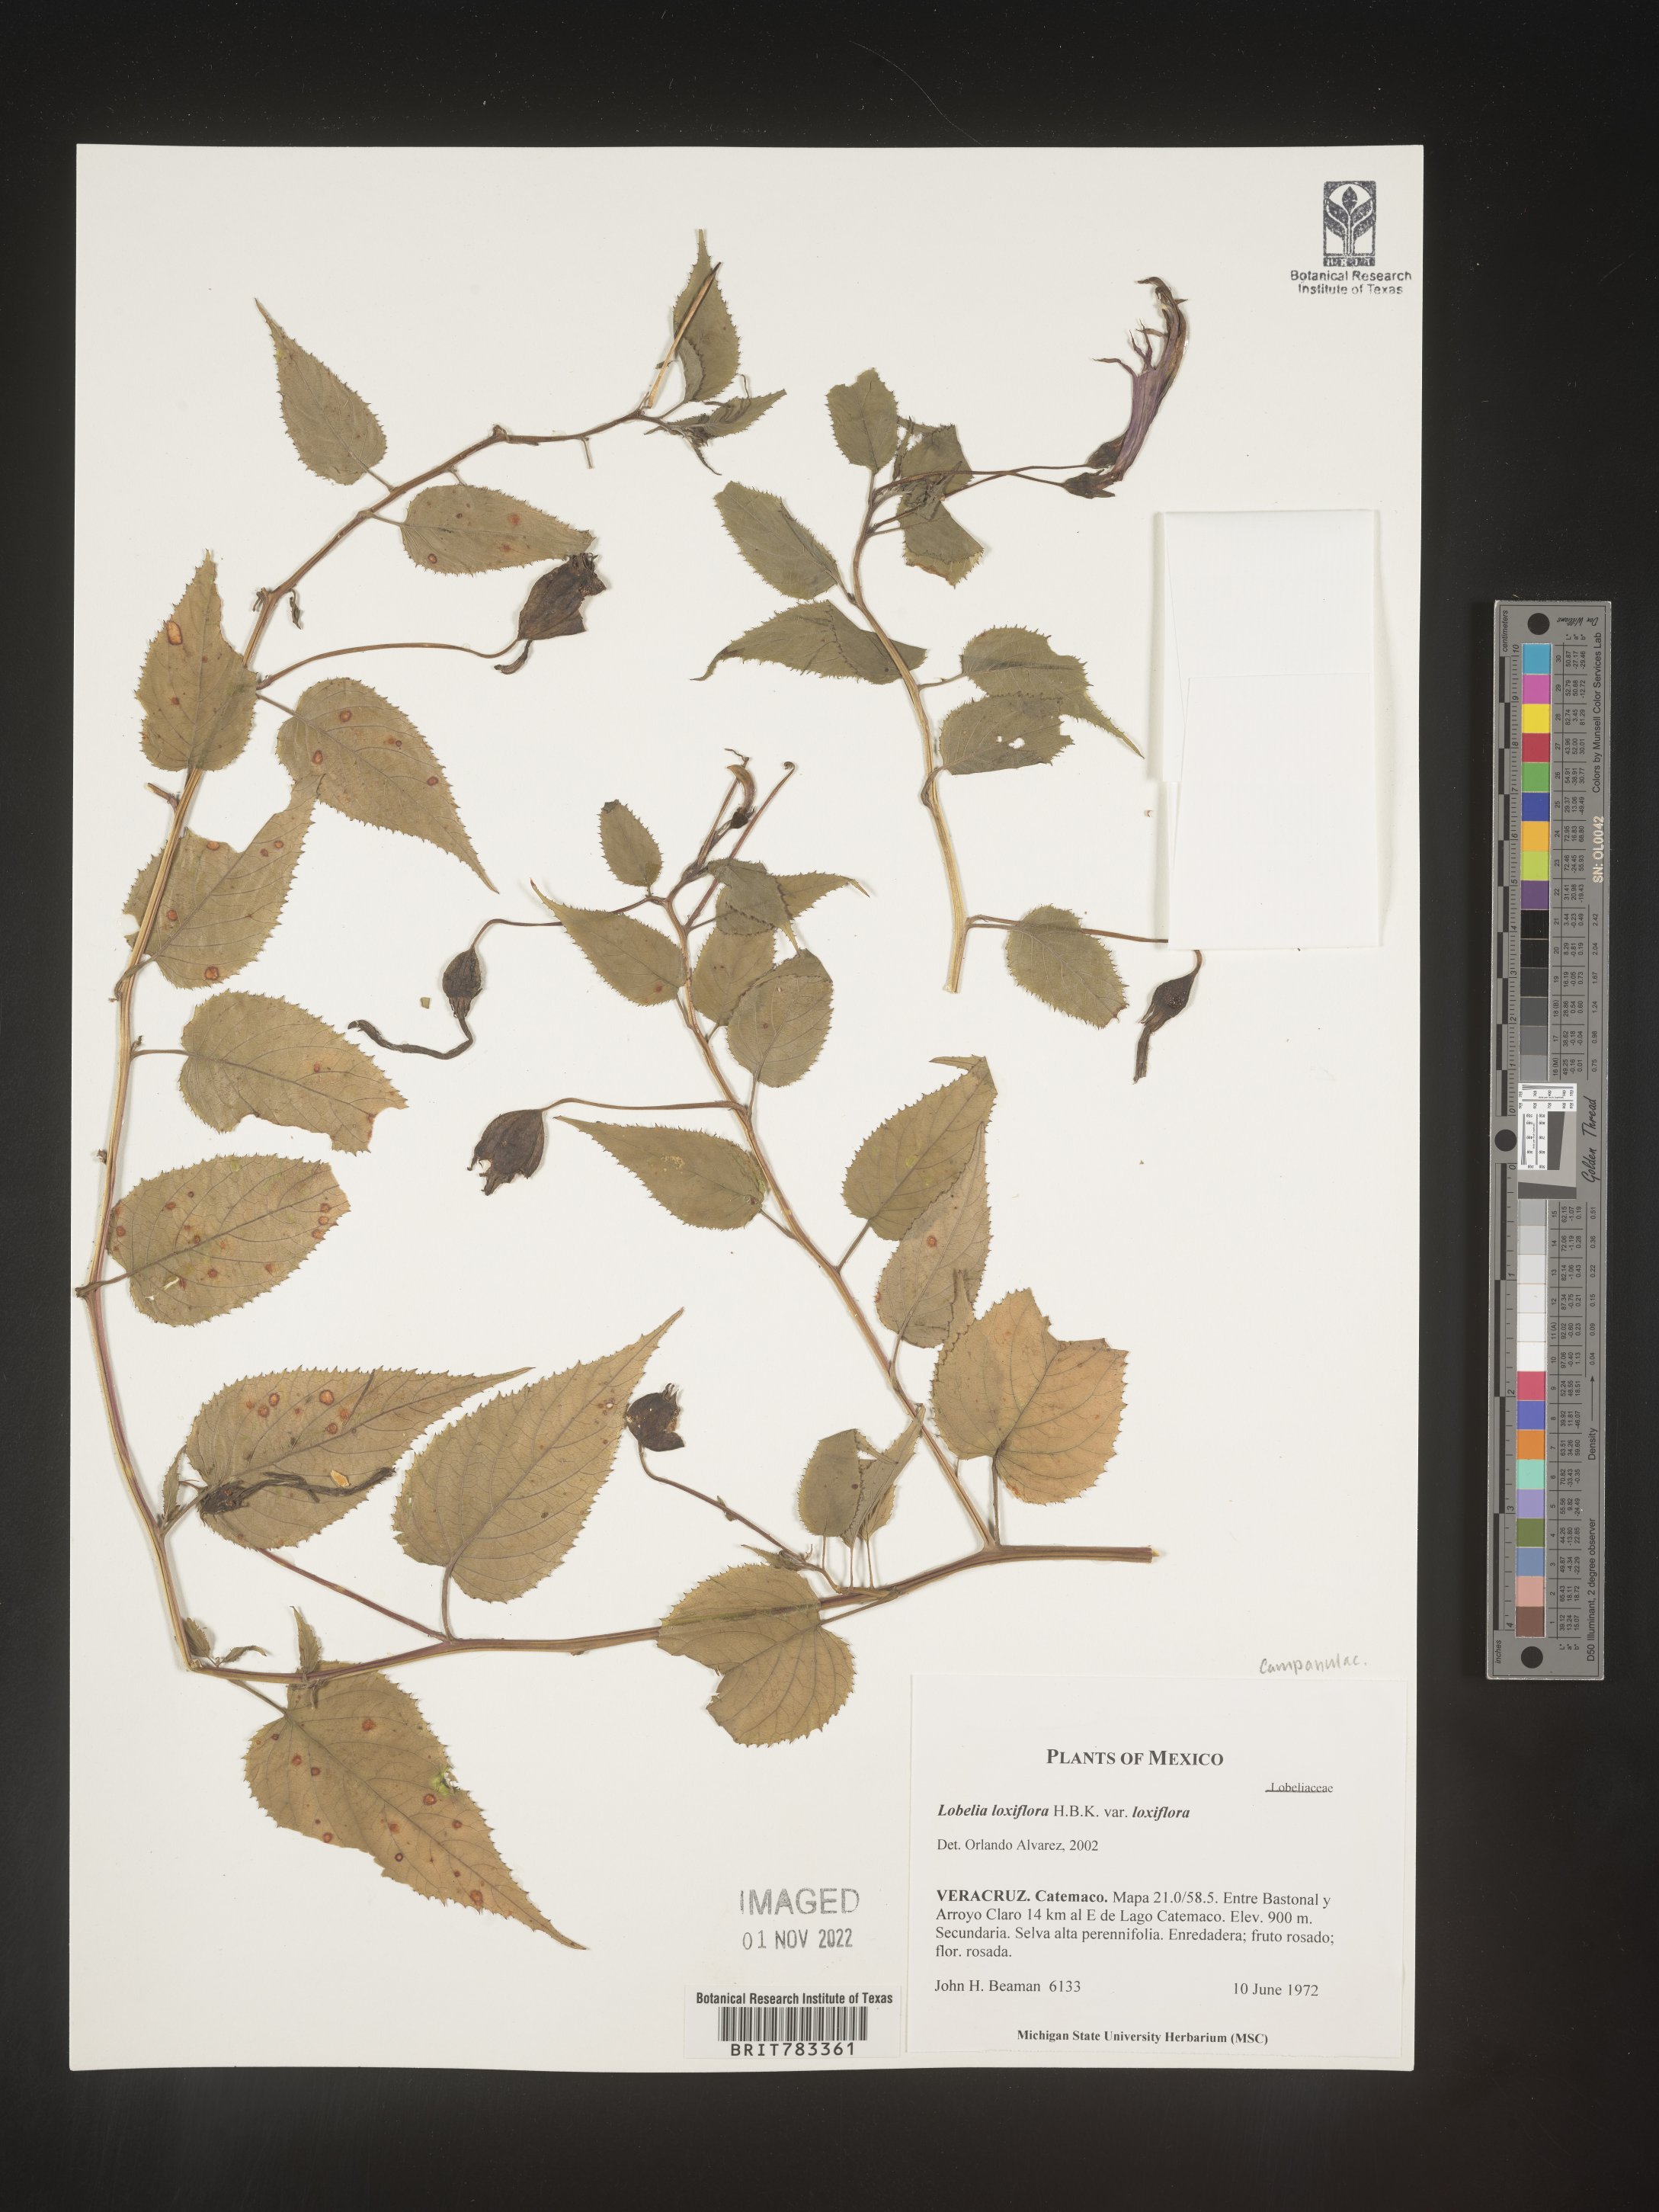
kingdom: Plantae
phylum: Tracheophyta
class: Magnoliopsida
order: Asterales
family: Campanulaceae
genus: Lobelia
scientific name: Lobelia
